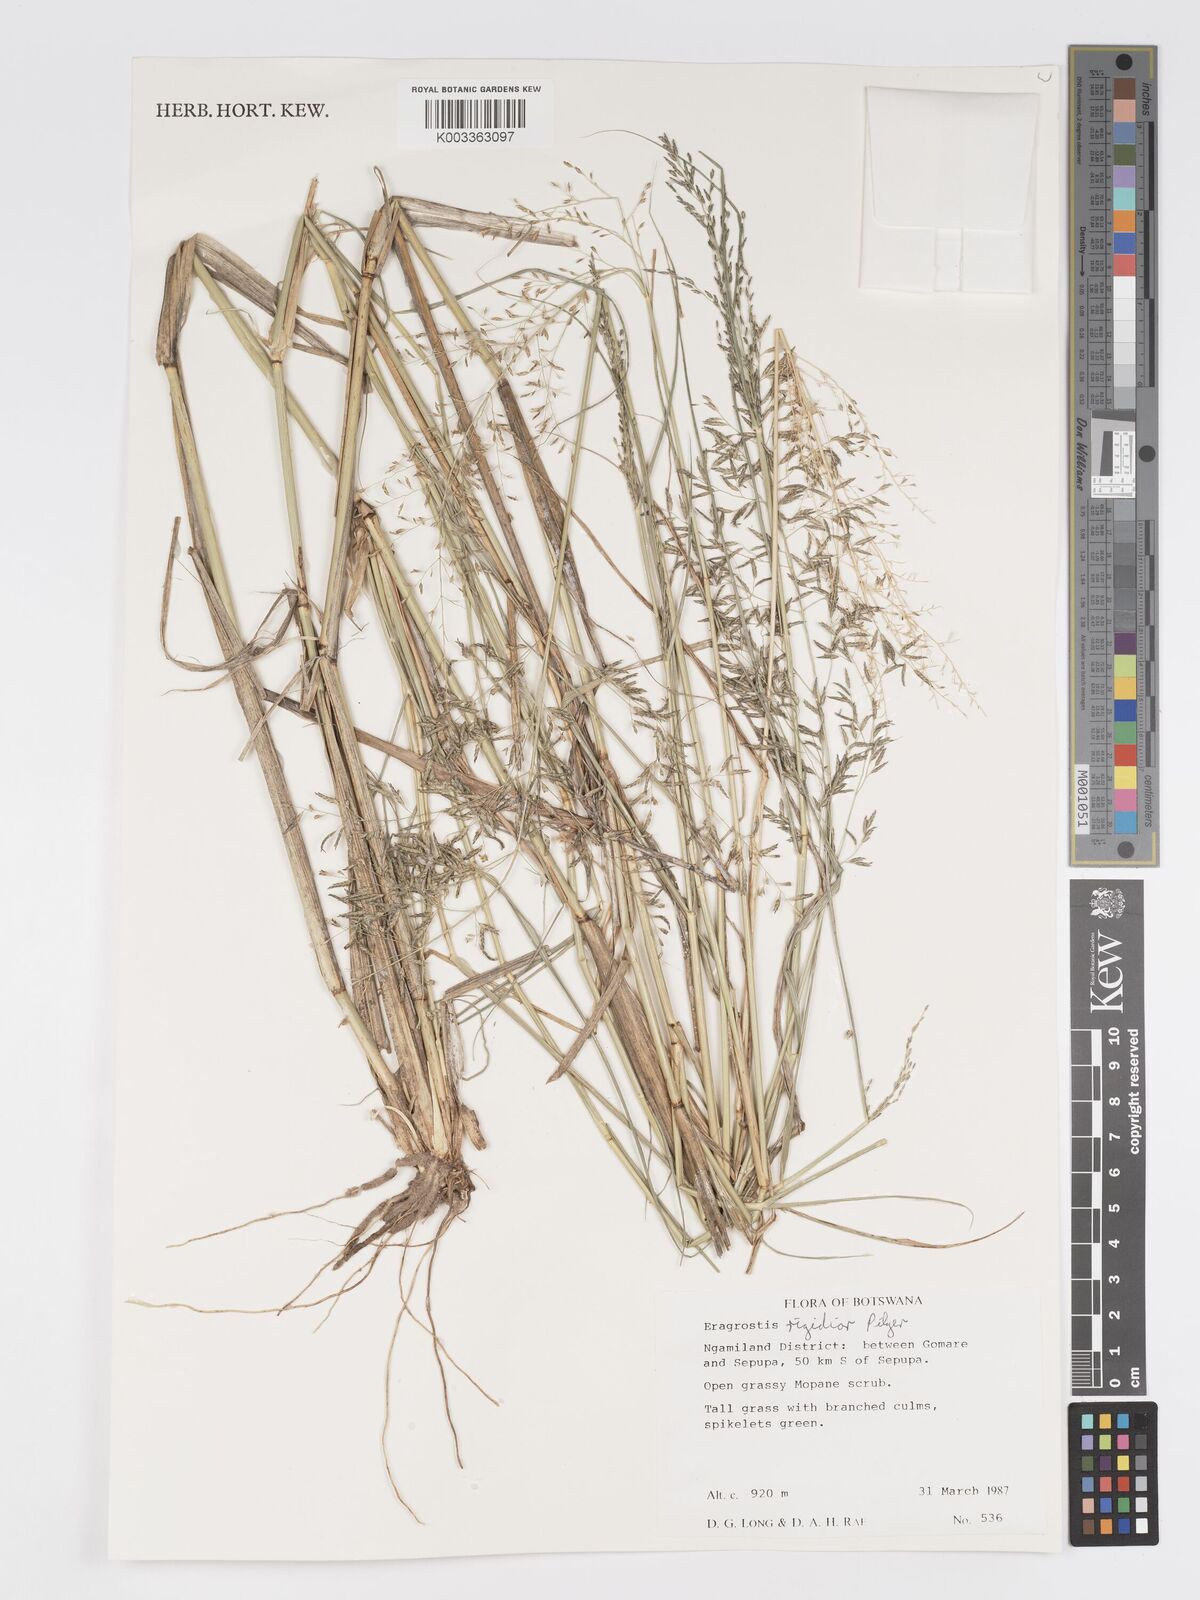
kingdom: Plantae
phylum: Tracheophyta
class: Liliopsida
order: Poales
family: Poaceae
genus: Eragrostis
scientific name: Eragrostis cylindriflora
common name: Cylinderflower lovegrass
